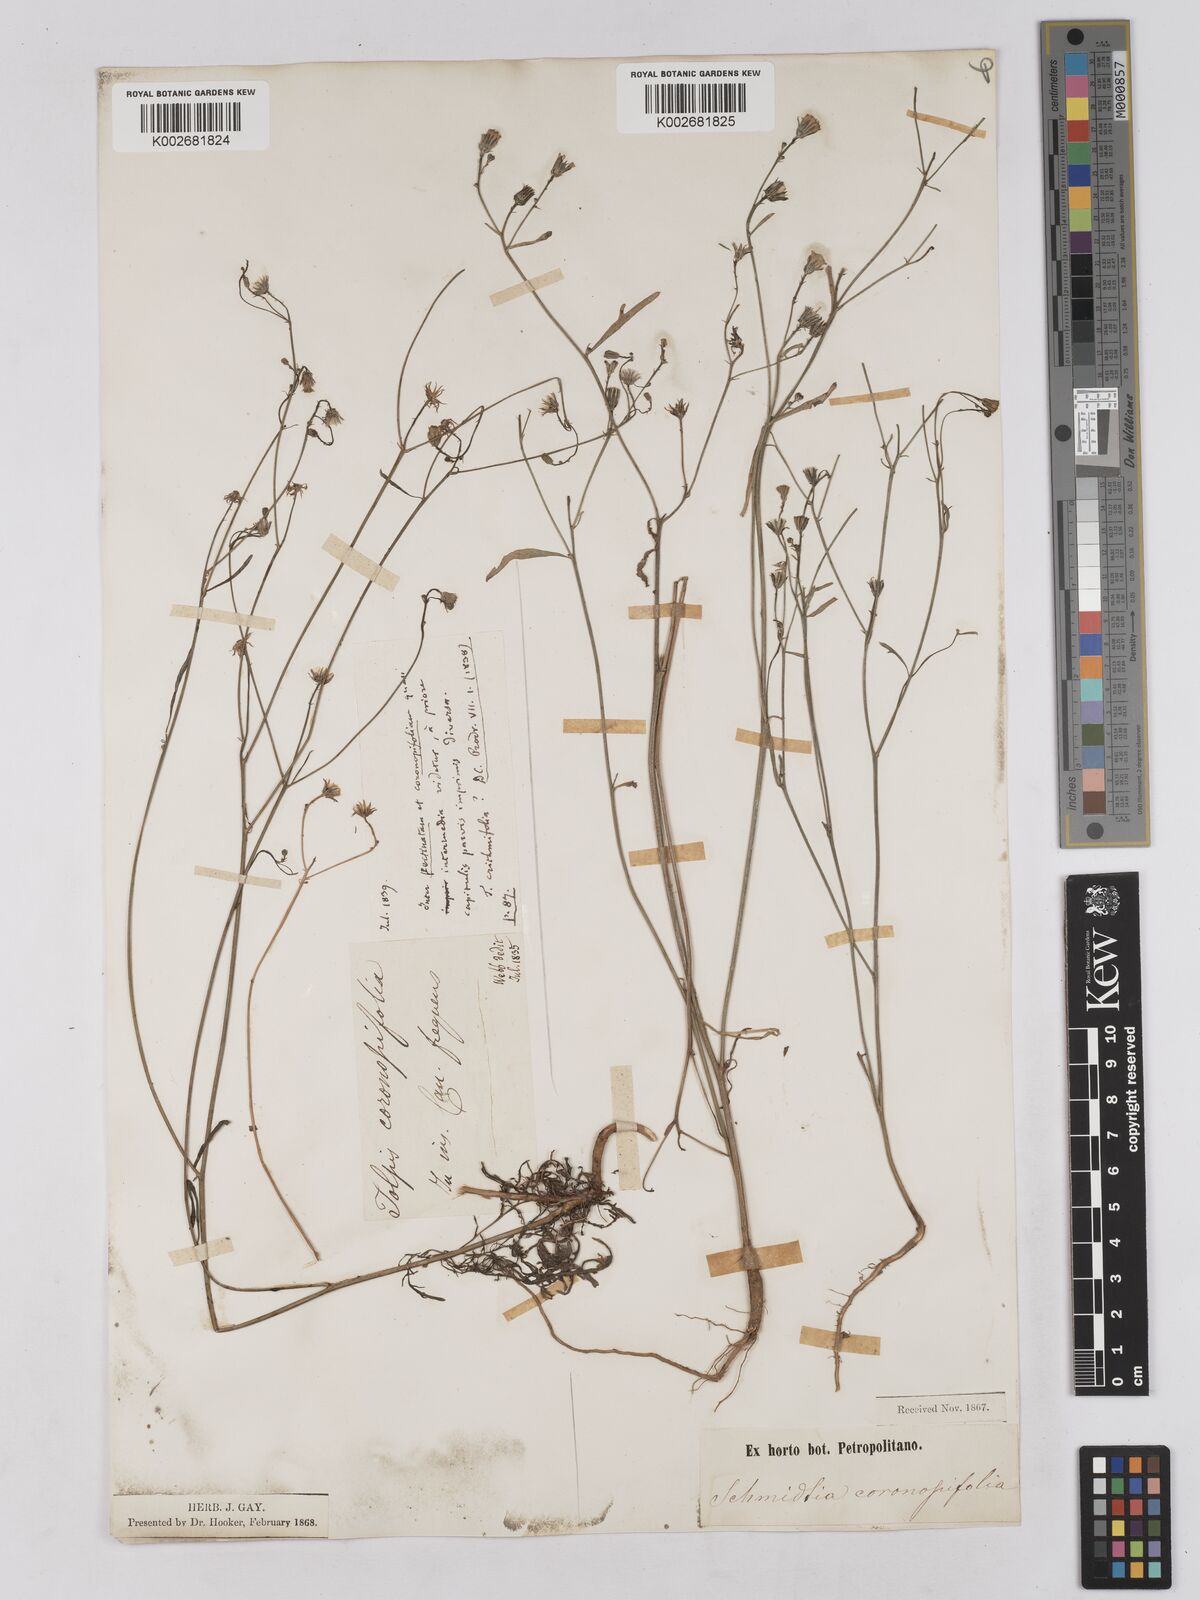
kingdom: Plantae
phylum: Tracheophyta
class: Magnoliopsida
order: Asterales
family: Asteraceae
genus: Tolpis
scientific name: Tolpis coronopifolia
